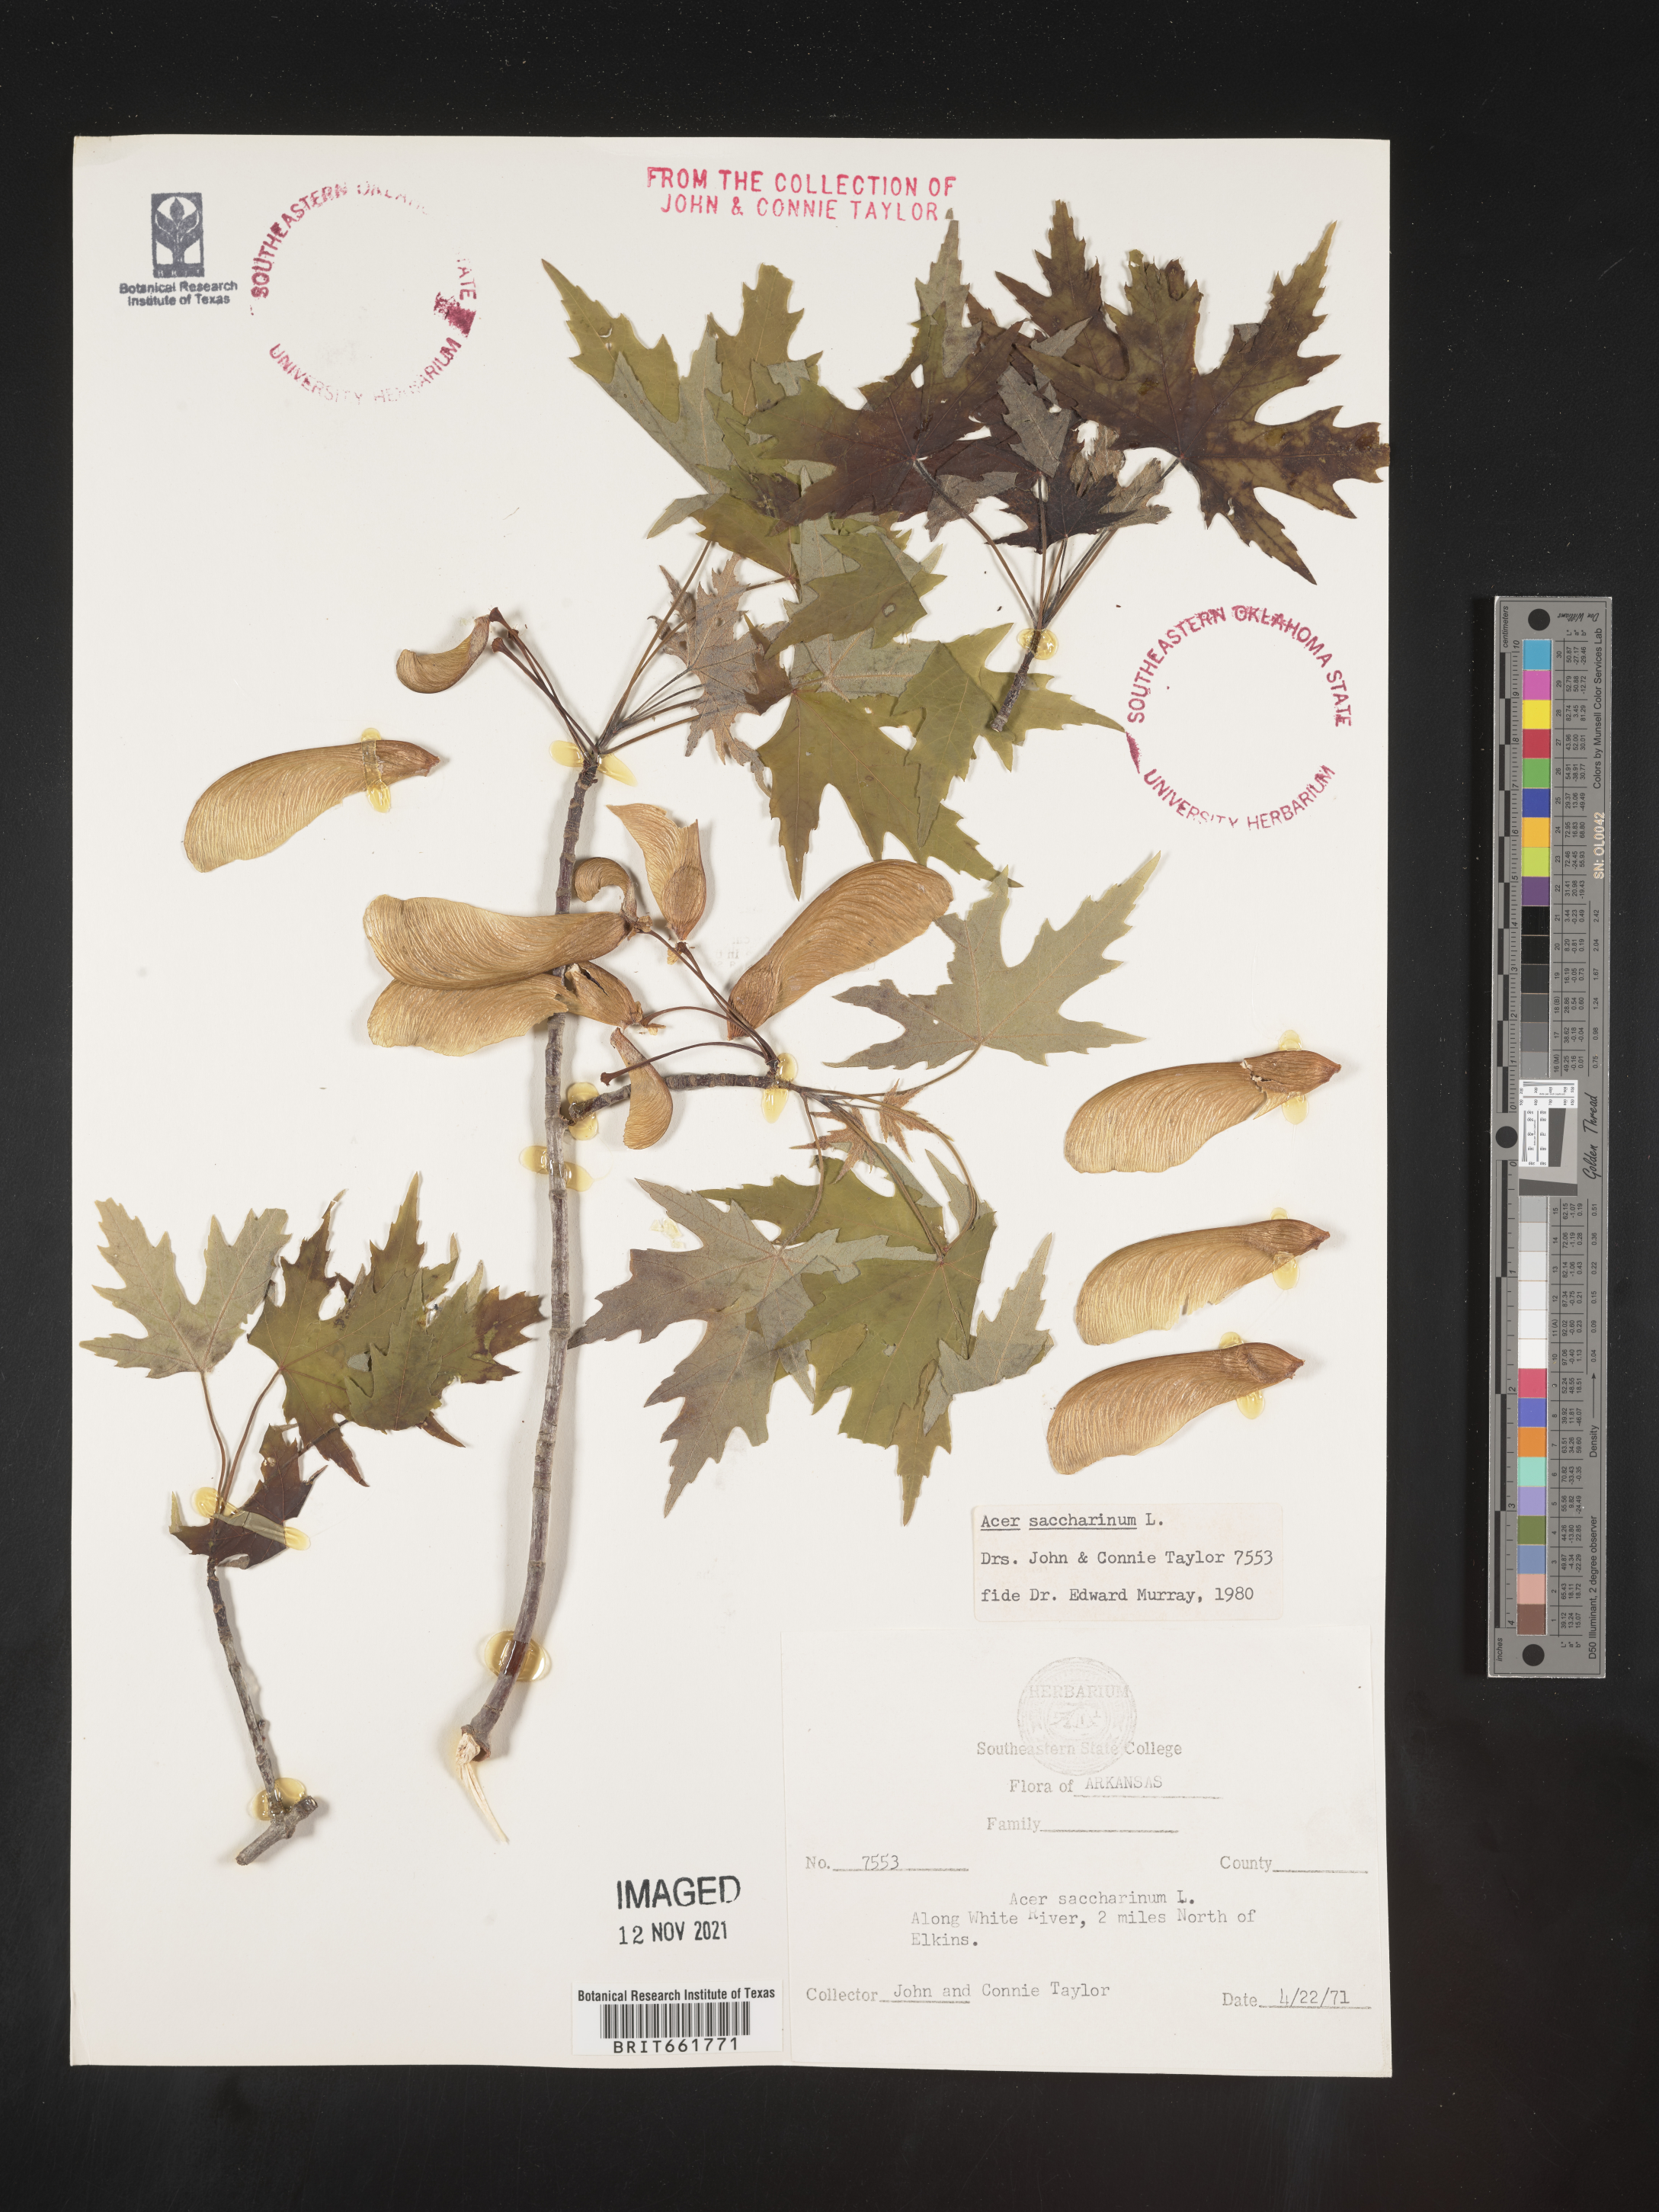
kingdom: Plantae
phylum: Tracheophyta
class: Magnoliopsida
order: Sapindales
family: Sapindaceae
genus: Acer
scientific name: Acer saccharinum
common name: Silver maple
